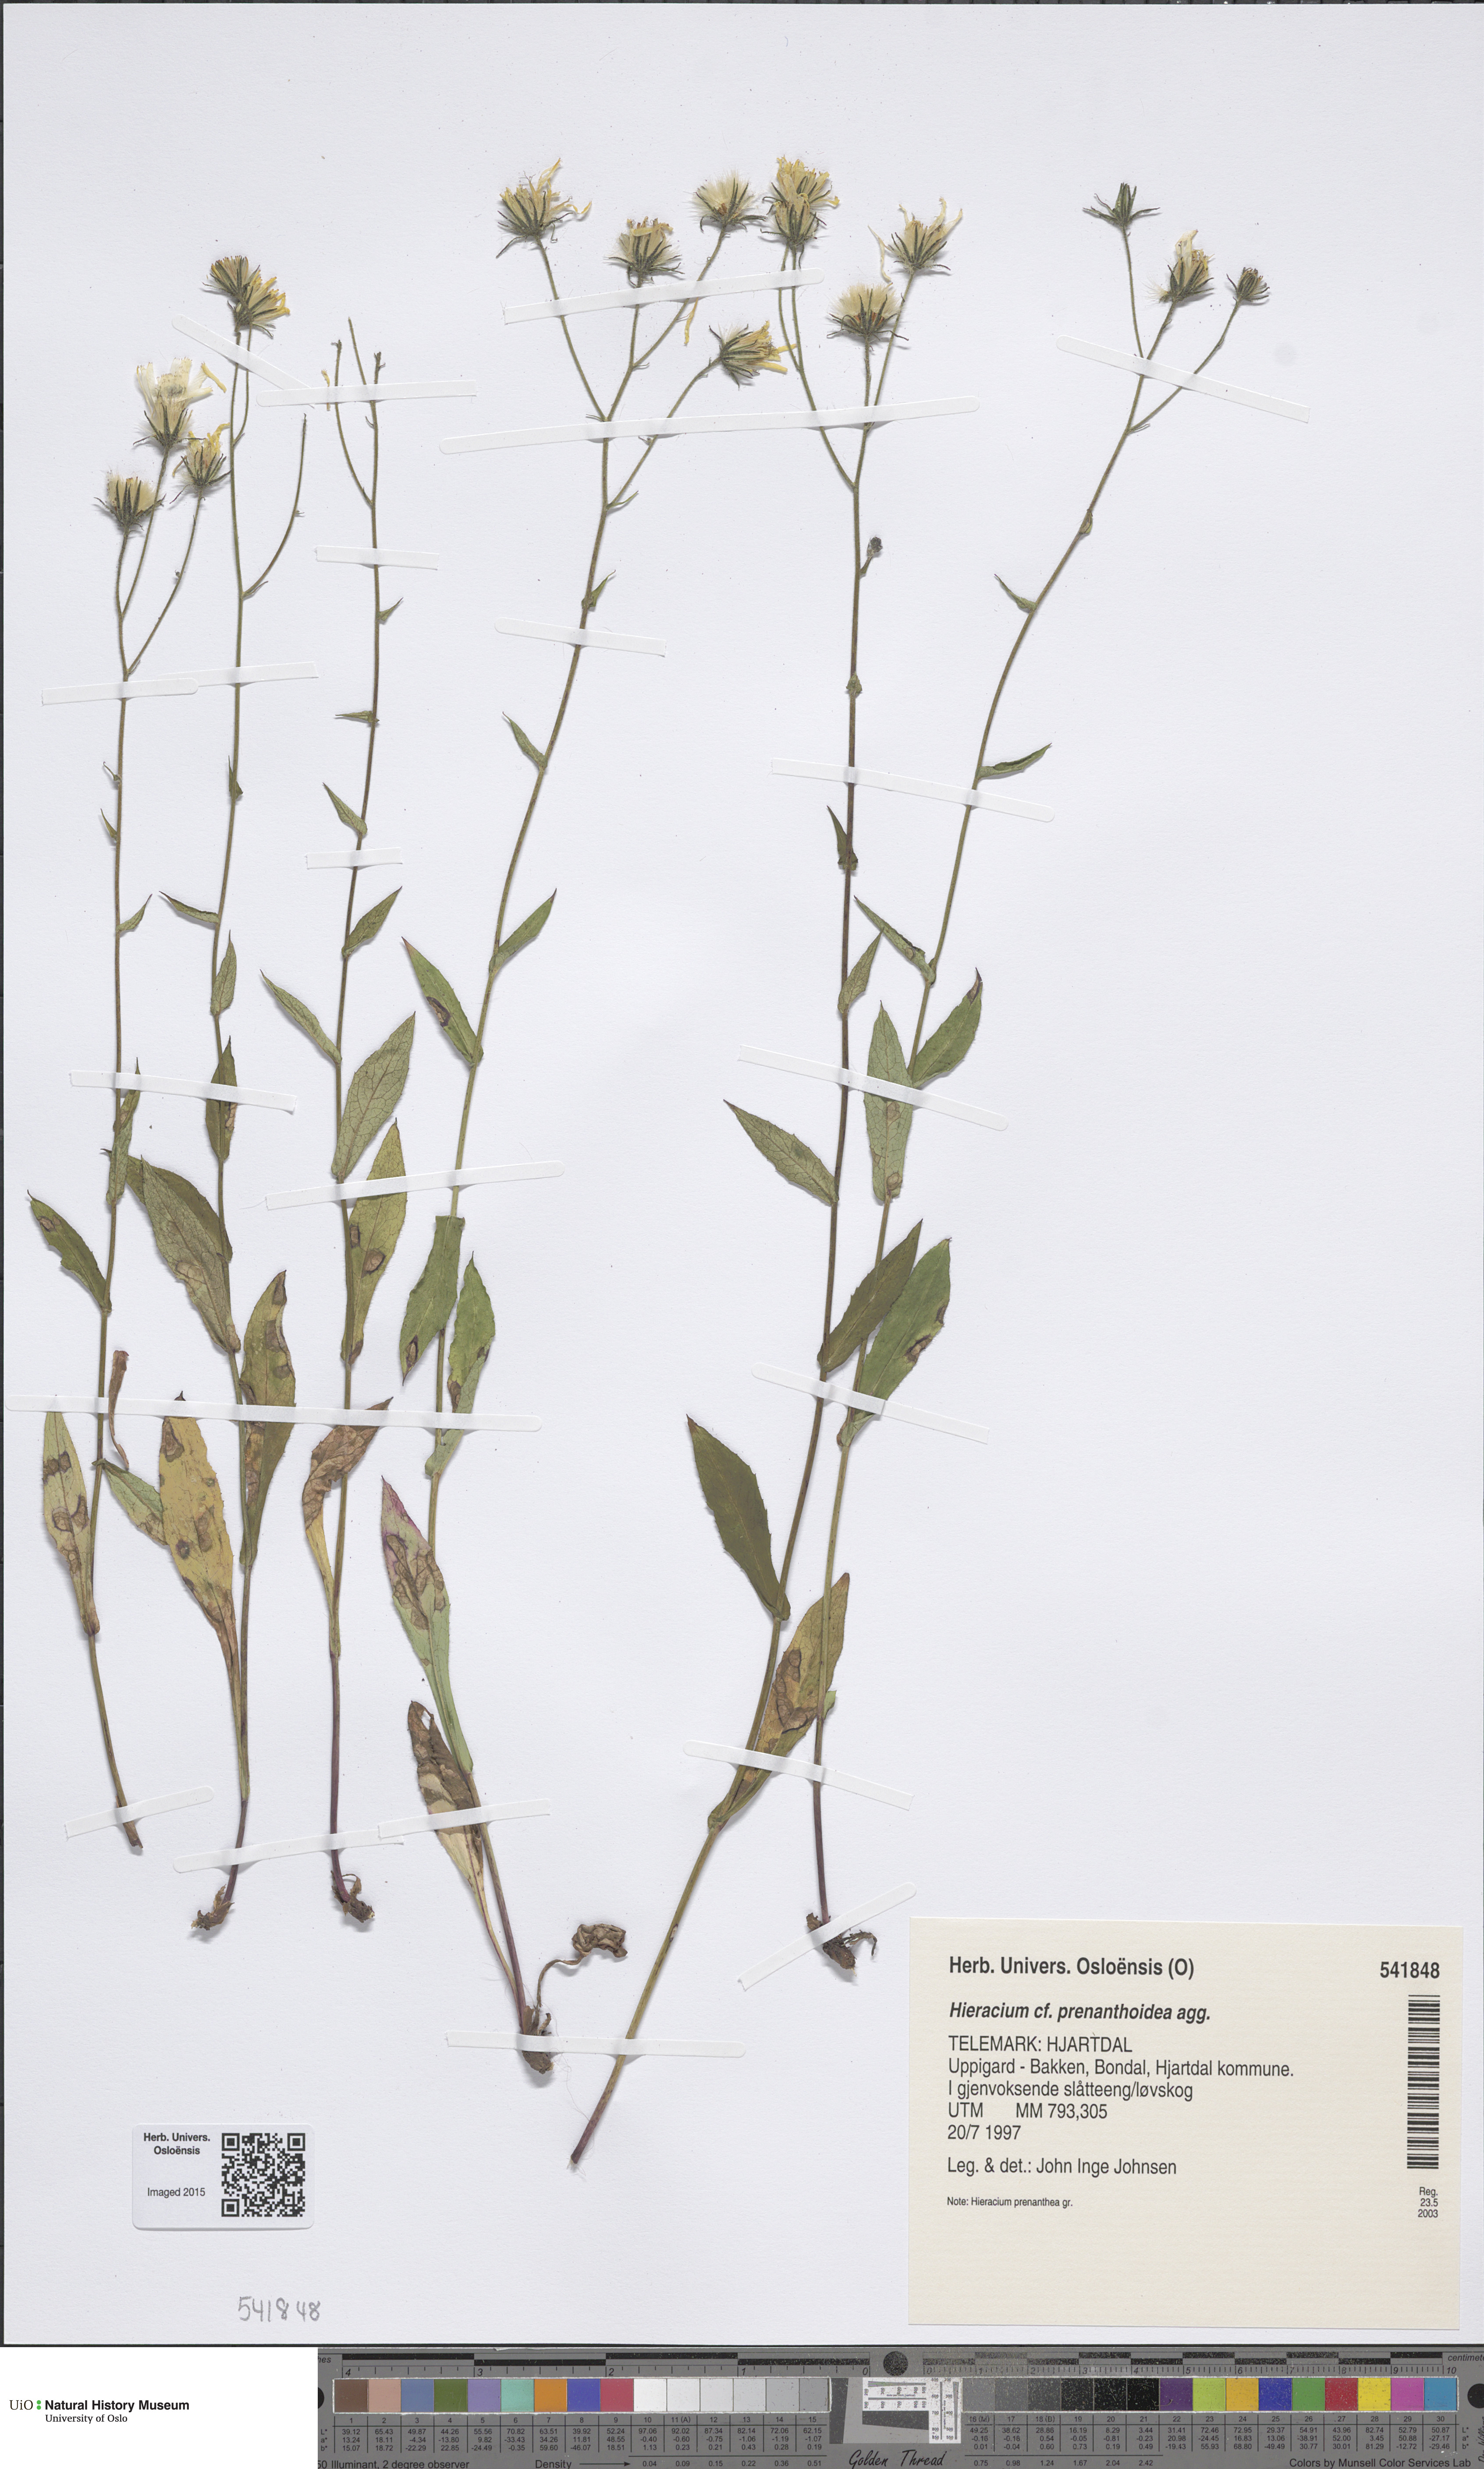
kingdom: Plantae
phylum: Tracheophyta
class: Magnoliopsida
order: Asterales
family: Asteraceae
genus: Hieracium
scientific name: Hieracium prenanthoides
